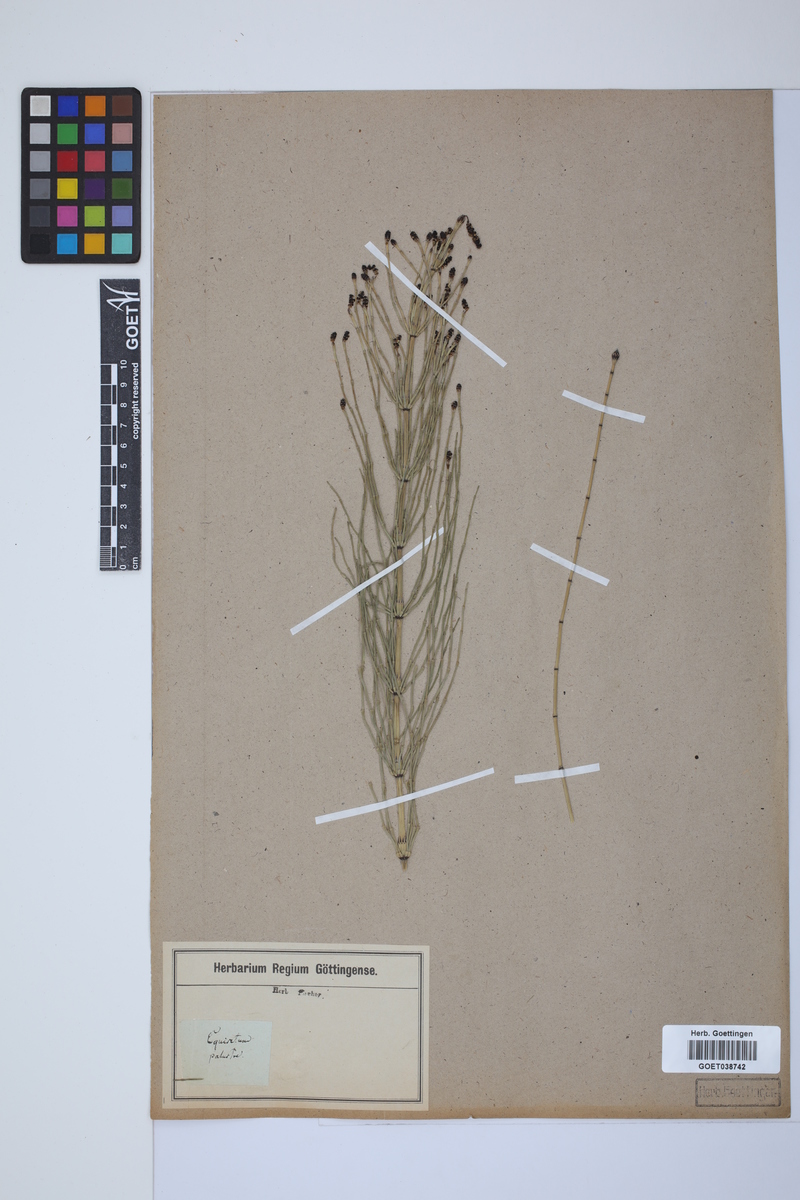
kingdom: Plantae
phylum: Tracheophyta
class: Polypodiopsida
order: Equisetales
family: Equisetaceae
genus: Equisetum
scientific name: Equisetum palustre
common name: Marsh horsetail
